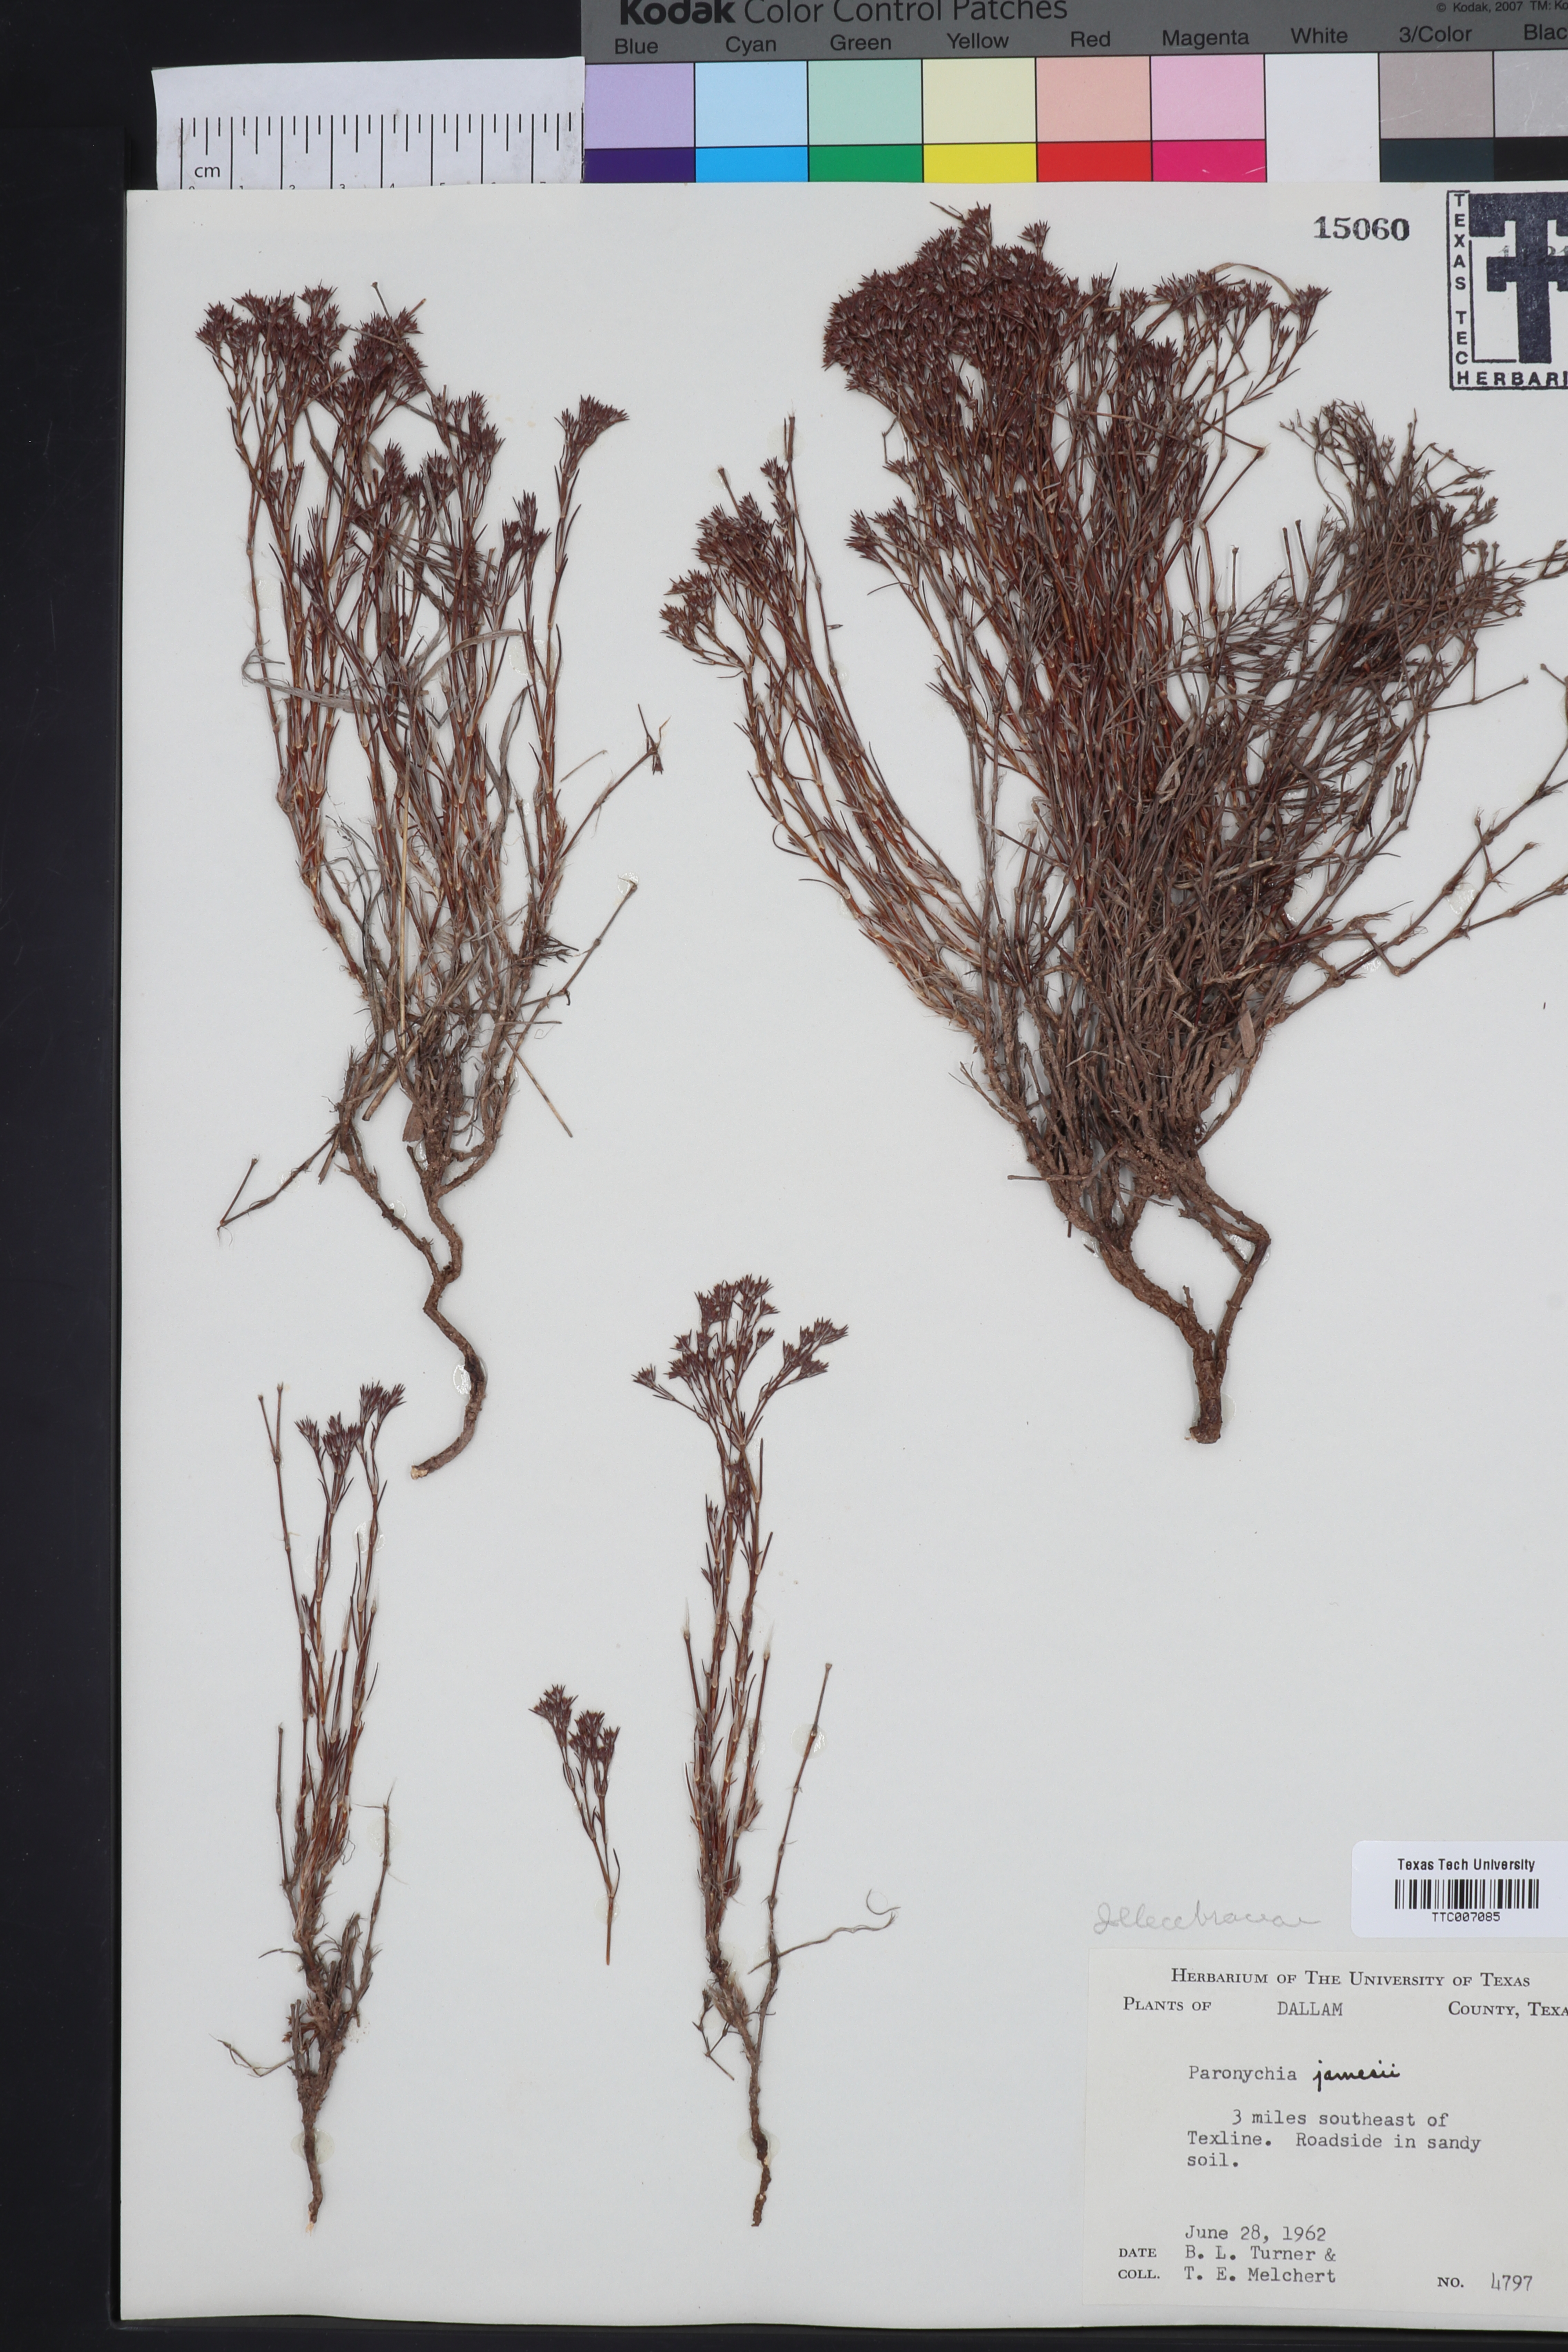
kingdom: Plantae
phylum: Tracheophyta
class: Magnoliopsida
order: Caryophyllales
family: Caryophyllaceae
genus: Paronychia
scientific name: Paronychia jamesii
